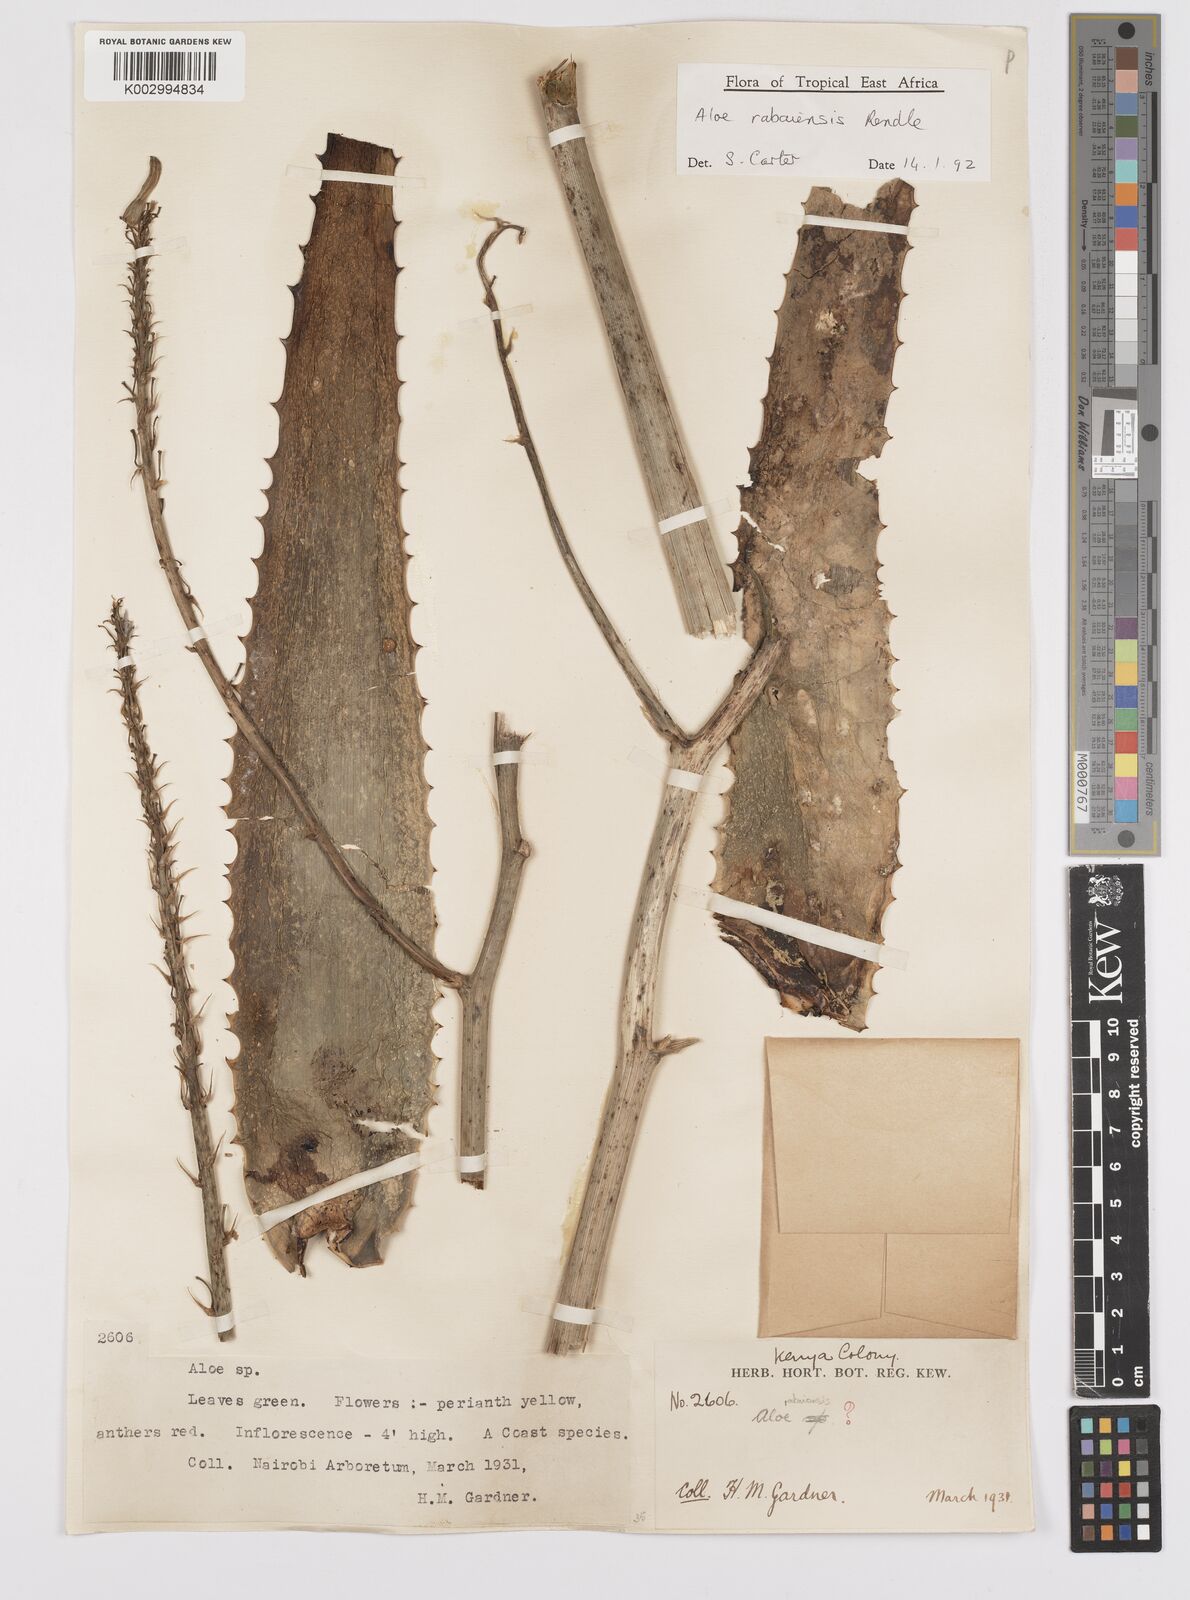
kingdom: Plantae
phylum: Tracheophyta
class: Liliopsida
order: Asparagales
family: Asphodelaceae
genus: Aloe
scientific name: Aloe rabaiensis
